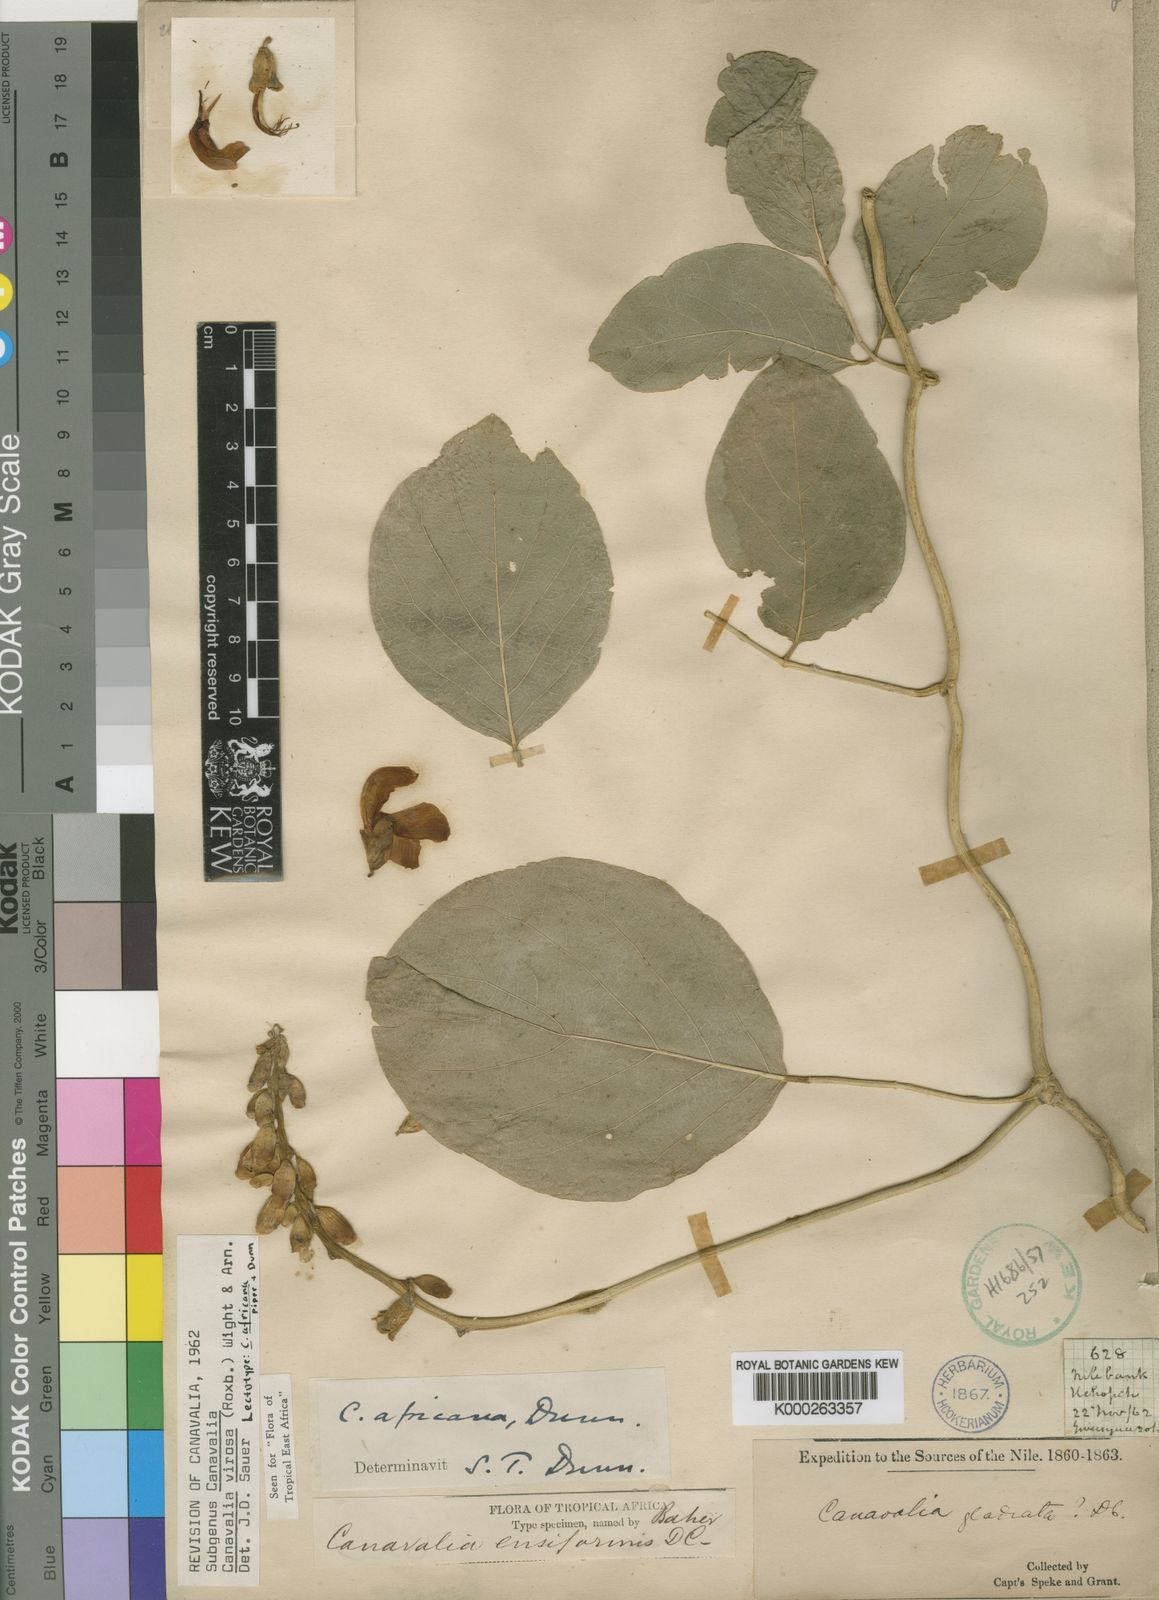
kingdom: Plantae
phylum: Tracheophyta
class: Magnoliopsida
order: Fabales
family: Fabaceae
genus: Canavalia
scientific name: Canavalia cathartica
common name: Maunaloa
